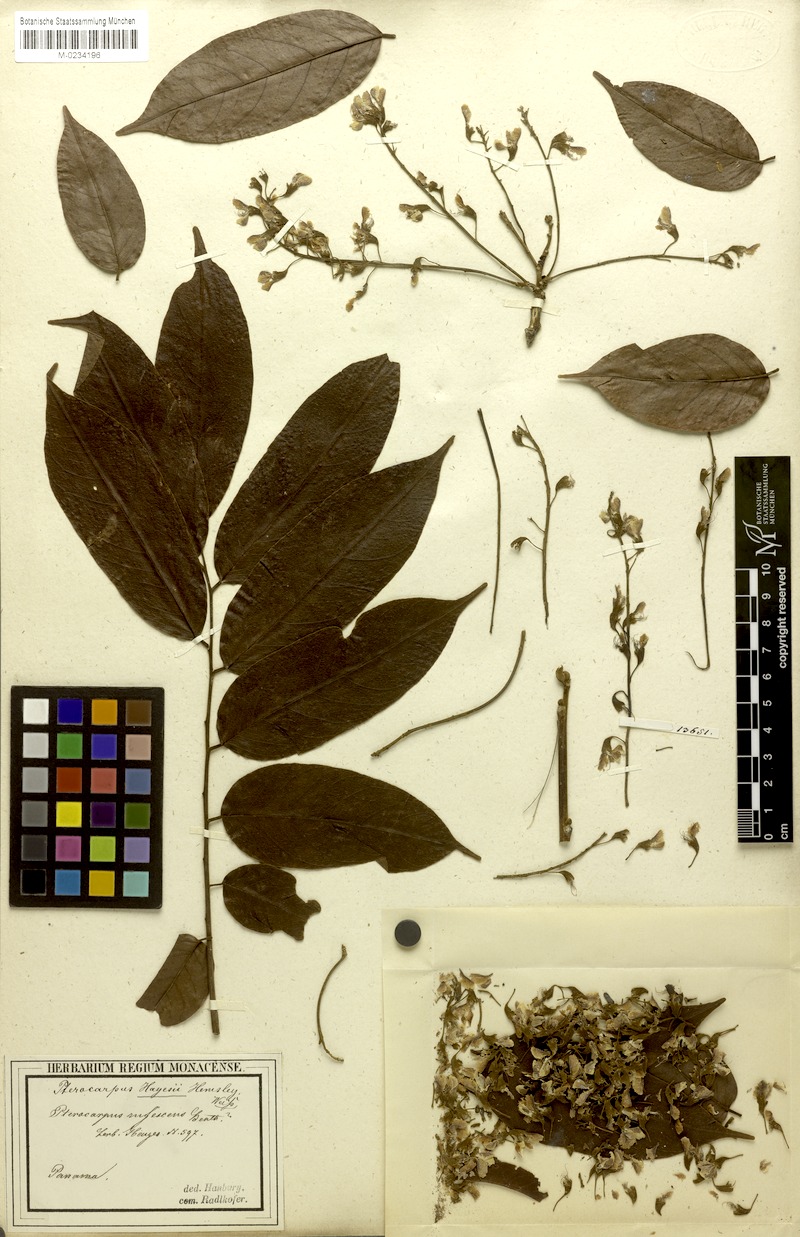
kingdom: Plantae
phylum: Tracheophyta
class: Magnoliopsida
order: Fabales
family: Fabaceae
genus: Pterocarpus
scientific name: Pterocarpus rohrii
